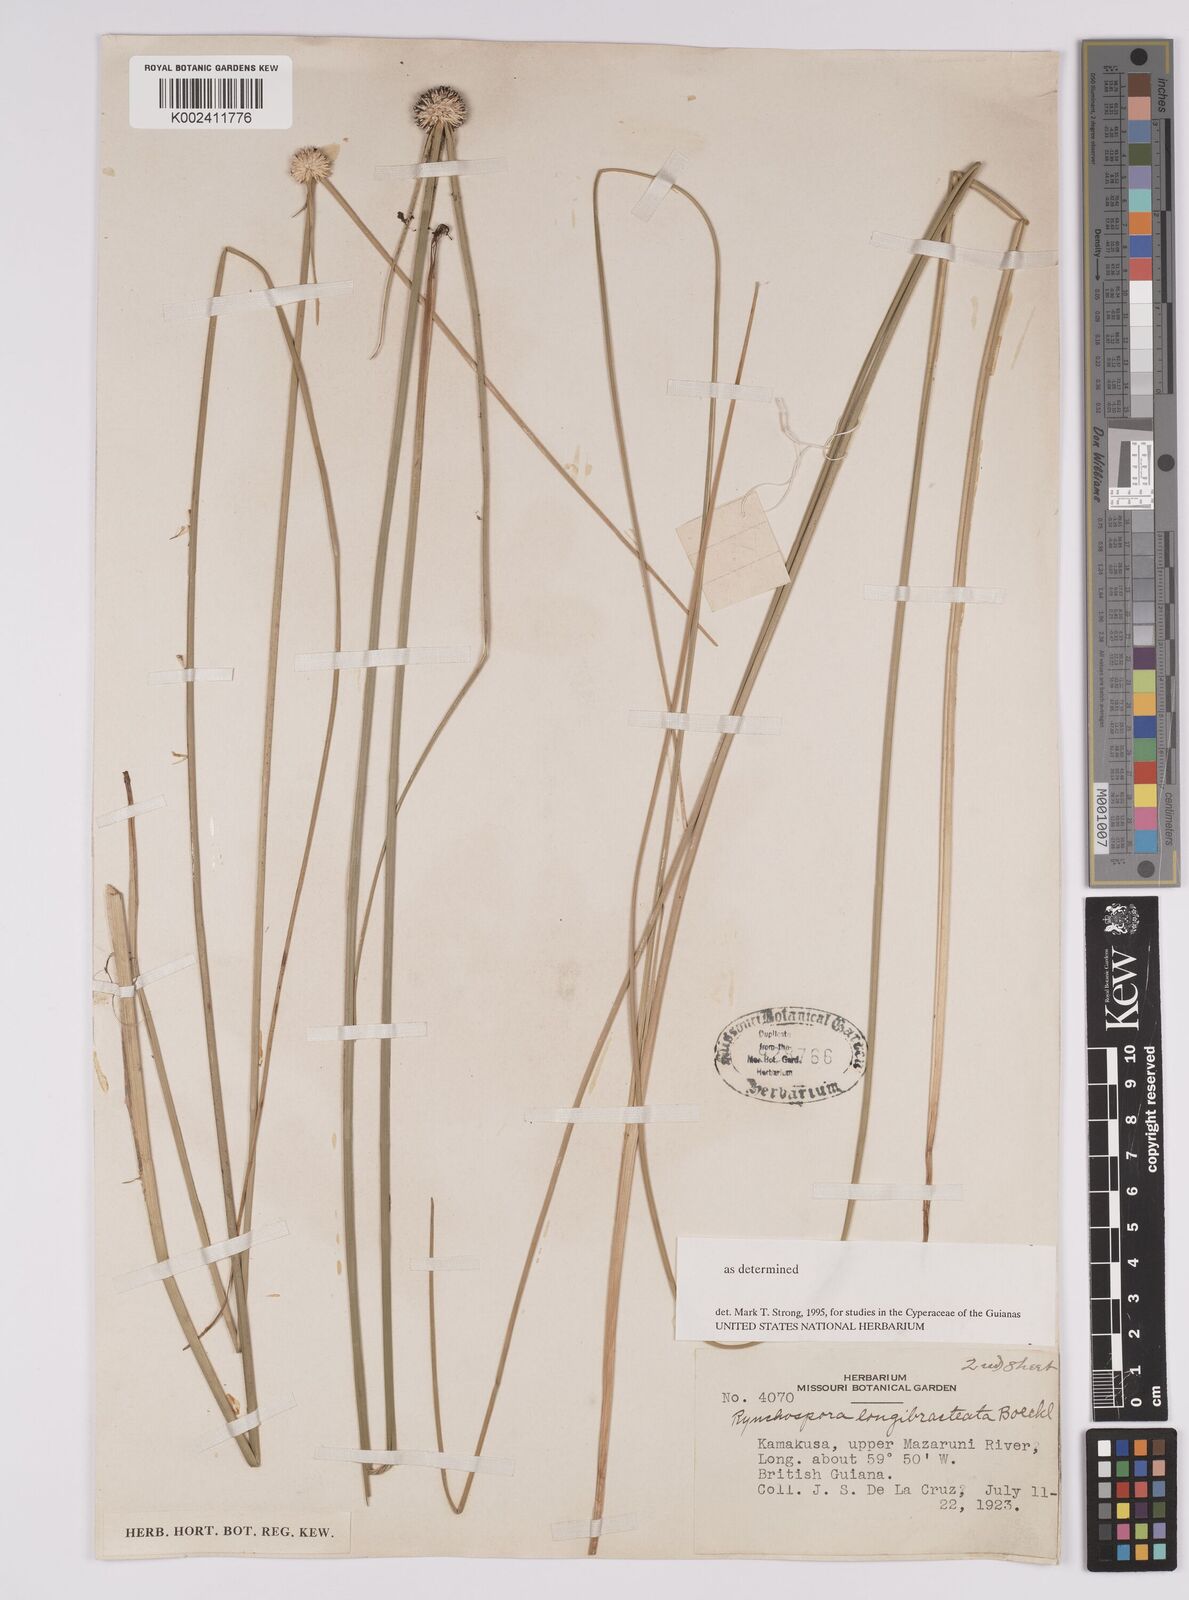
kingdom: Plantae
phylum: Tracheophyta
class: Liliopsida
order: Poales
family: Cyperaceae
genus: Rhynchospora
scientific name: Rhynchospora longibracteata
